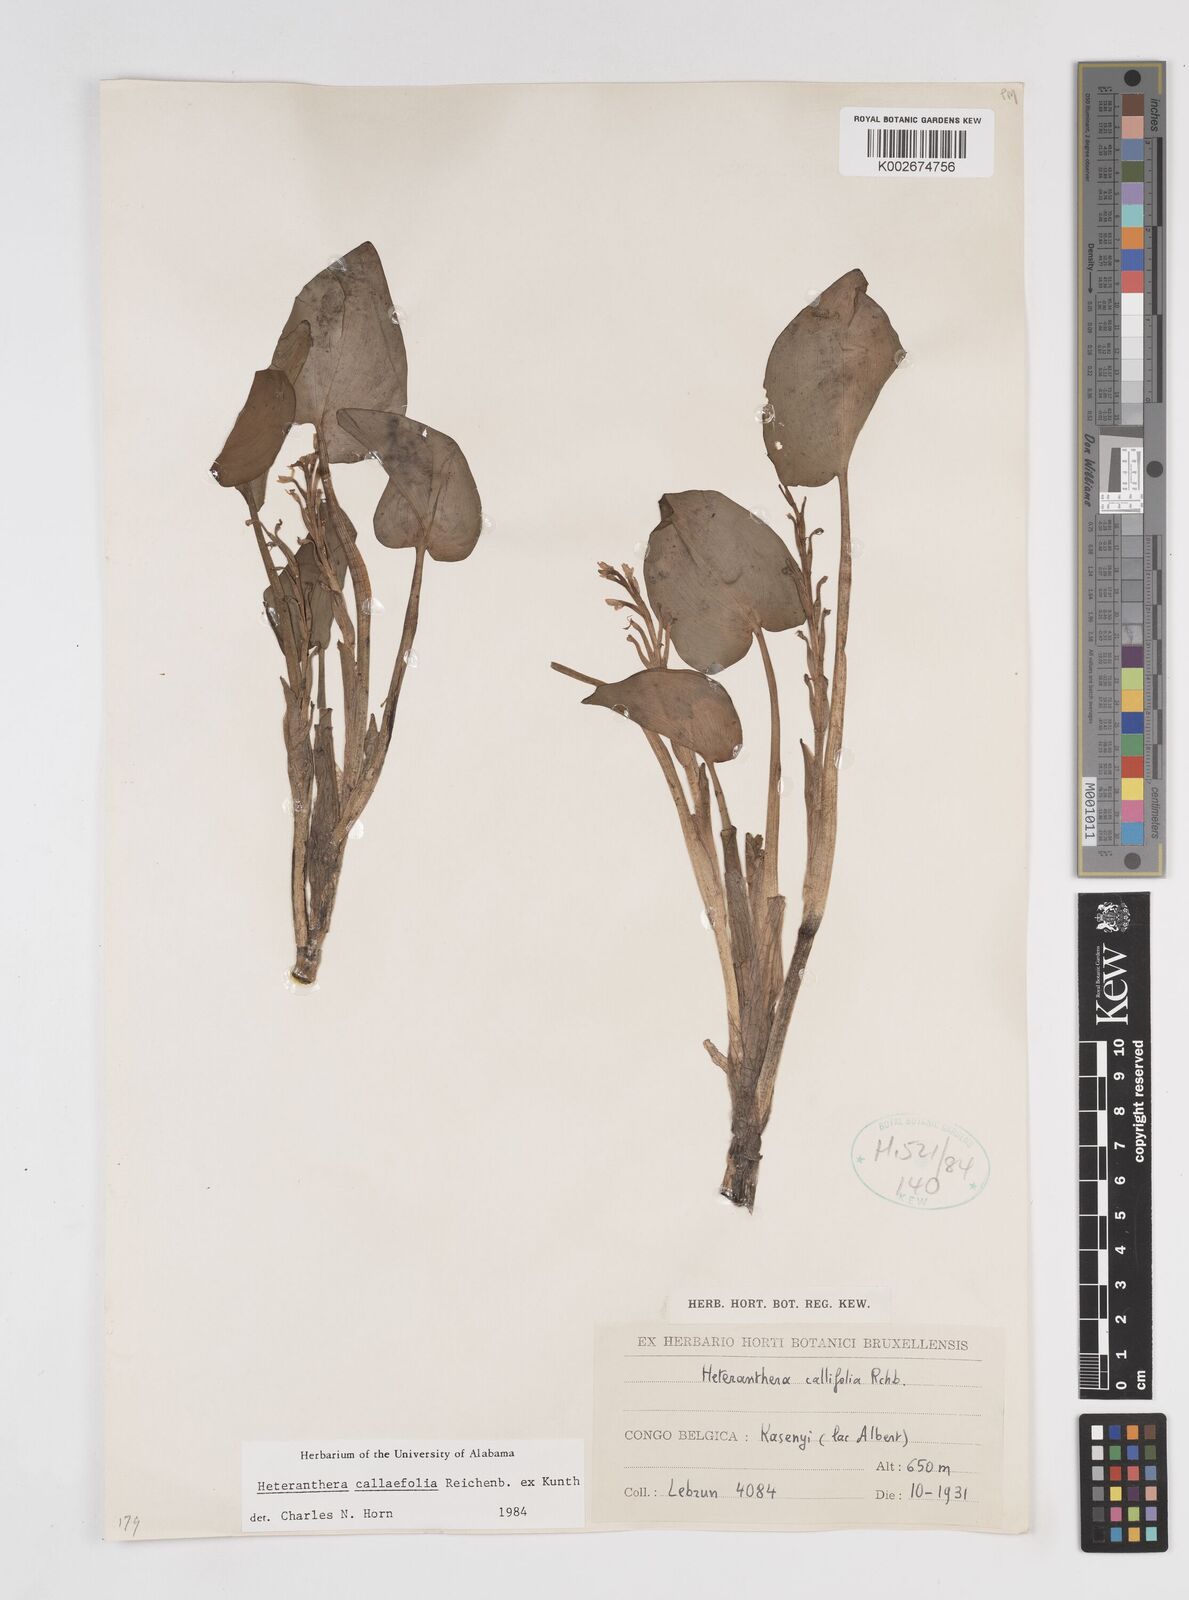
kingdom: Plantae
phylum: Tracheophyta
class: Liliopsida
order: Commelinales
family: Pontederiaceae
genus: Heteranthera
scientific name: Heteranthera callifolia
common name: Mud plantain
